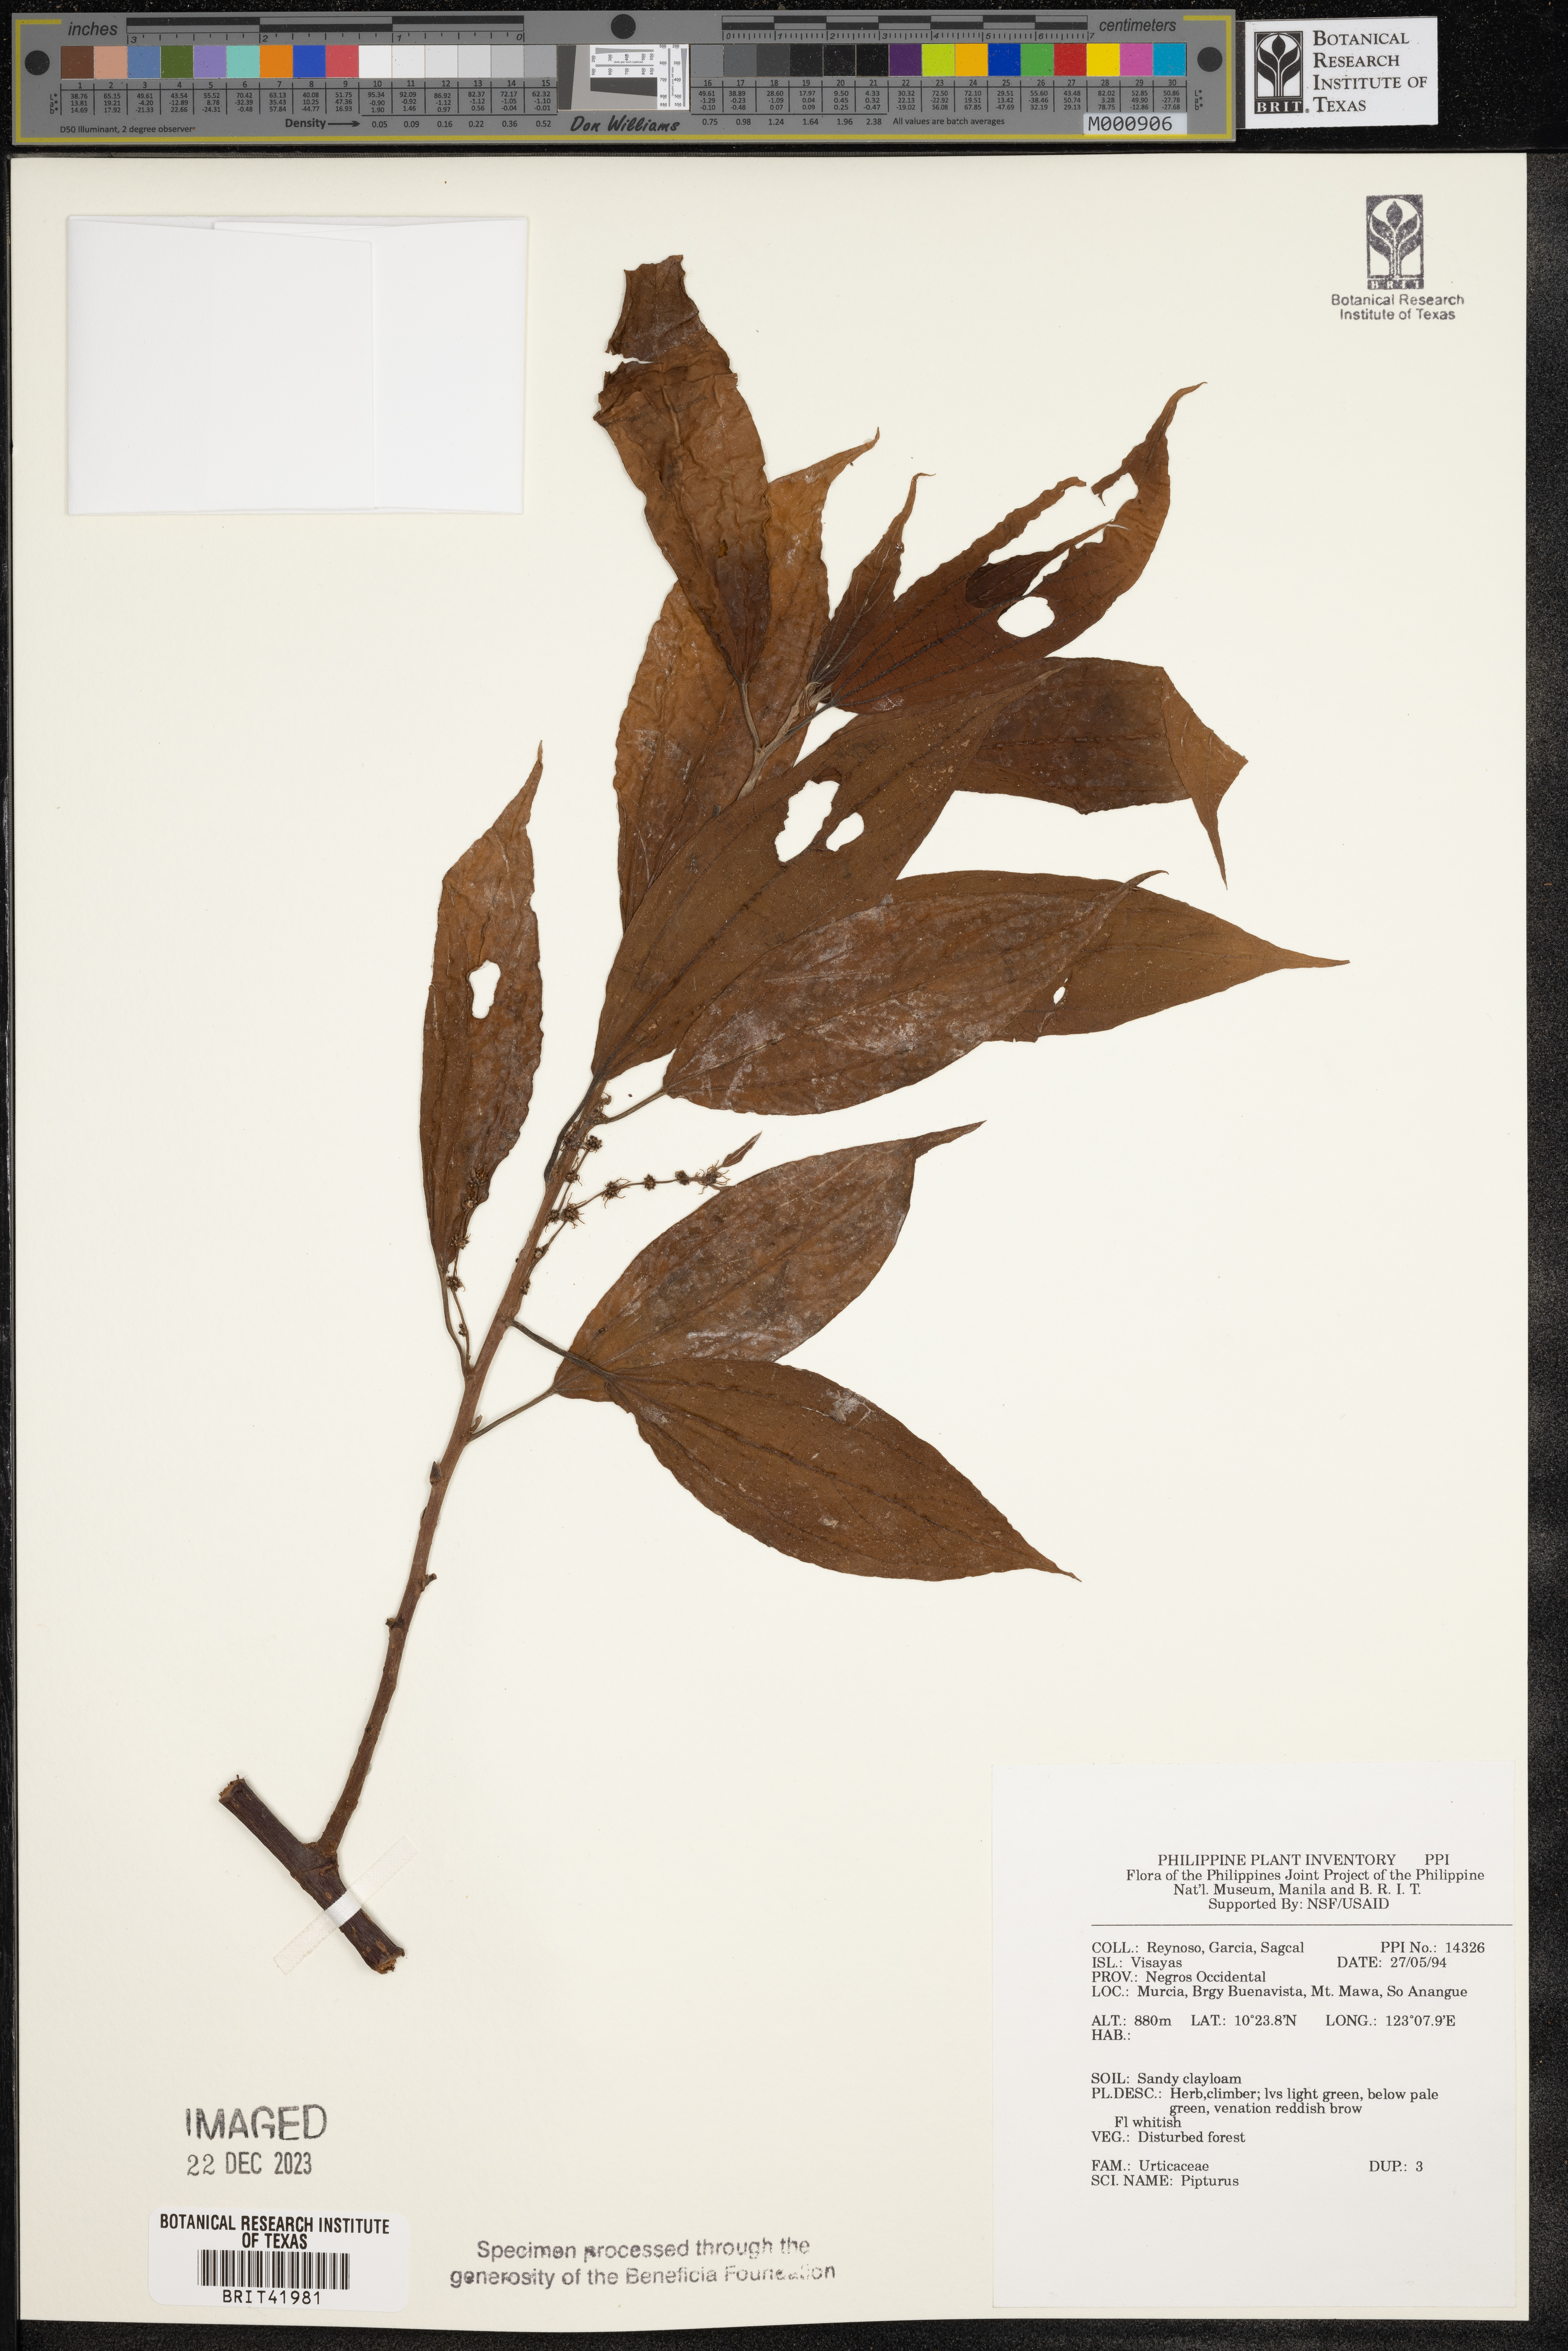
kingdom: Plantae
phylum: Tracheophyta
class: Magnoliopsida
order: Rosales
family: Urticaceae
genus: Pipturus
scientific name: Pipturus
